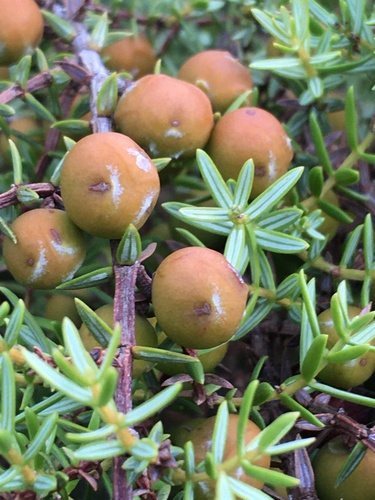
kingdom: Plantae
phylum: Tracheophyta
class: Pinopsida
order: Pinales
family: Cupressaceae
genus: Juniperus
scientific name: Juniperus oxycedrus
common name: Prickly juniper
